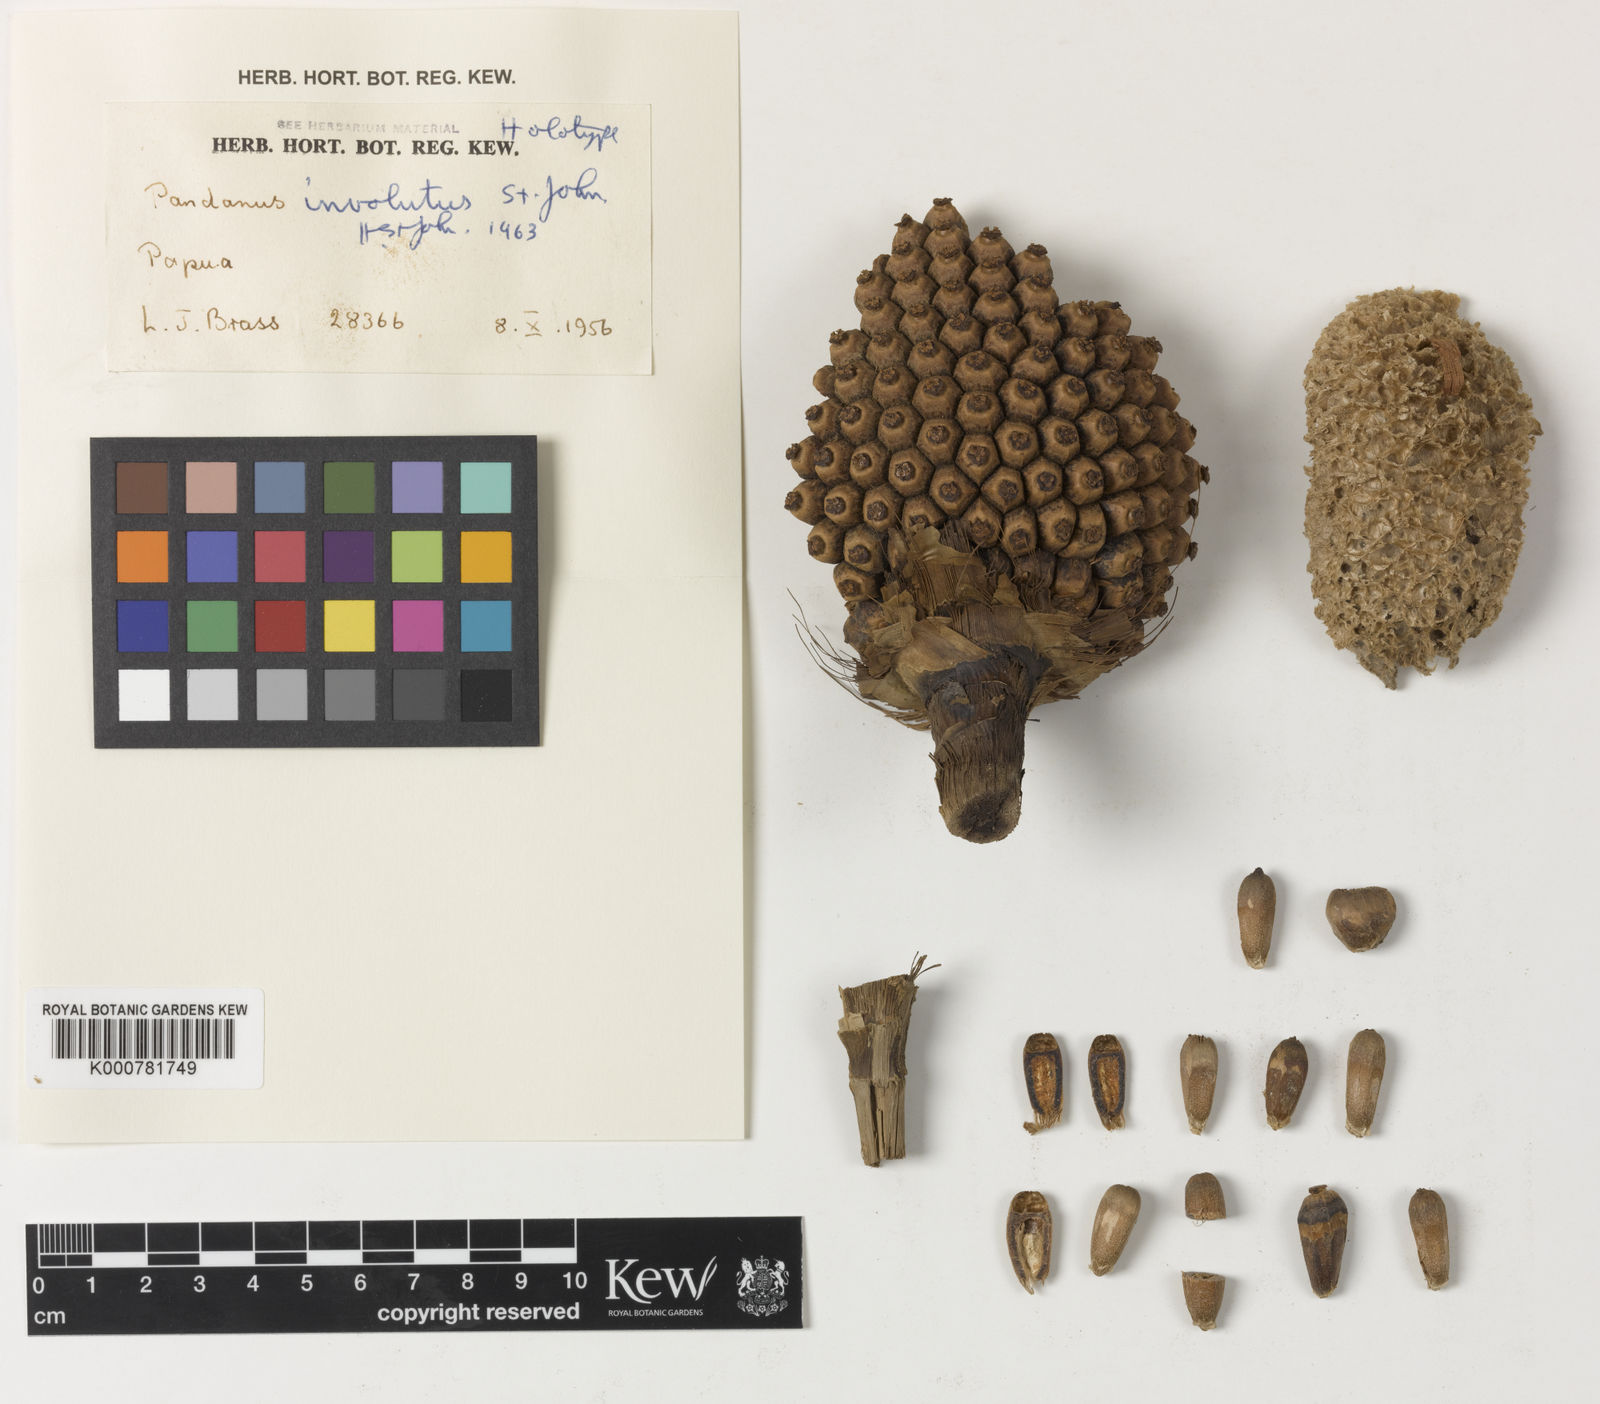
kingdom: Plantae
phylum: Tracheophyta
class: Liliopsida
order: Pandanales
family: Pandanaceae
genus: Pandanus
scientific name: Pandanus involutus
